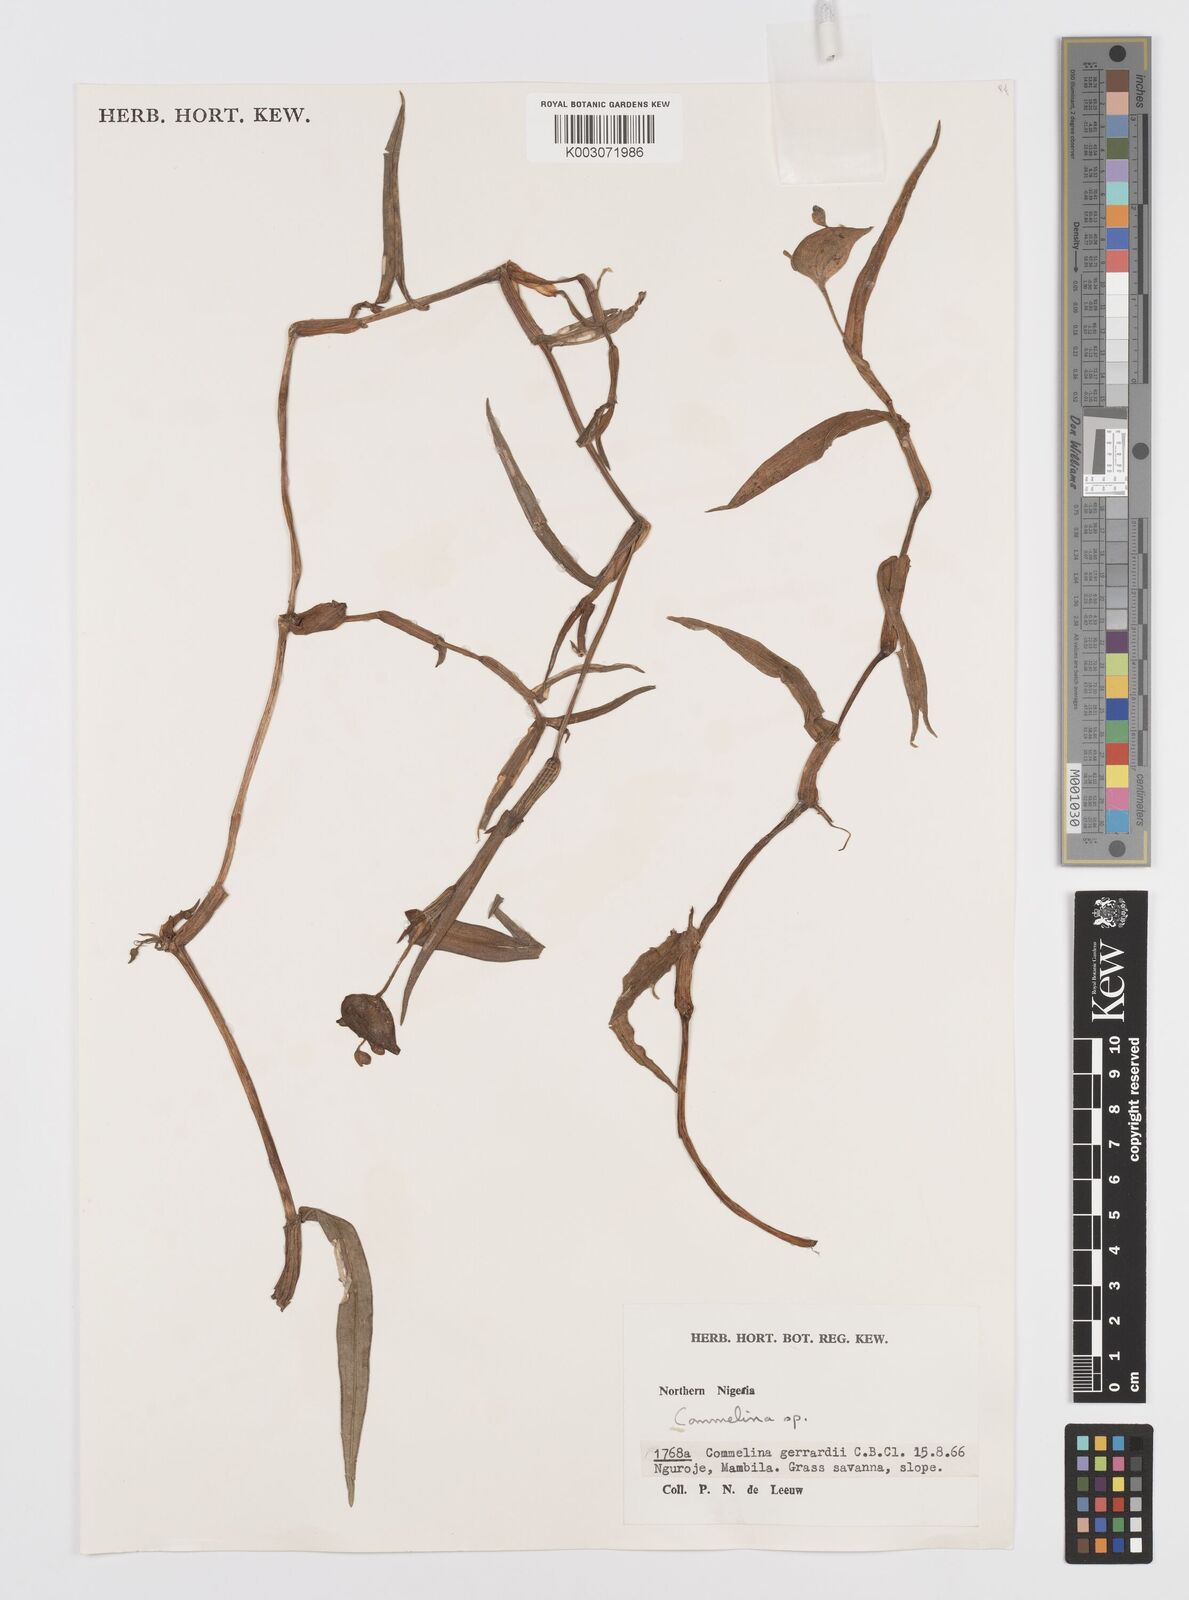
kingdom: Plantae
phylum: Tracheophyta
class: Liliopsida
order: Commelinales
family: Commelinaceae
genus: Commelina
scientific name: Commelina
